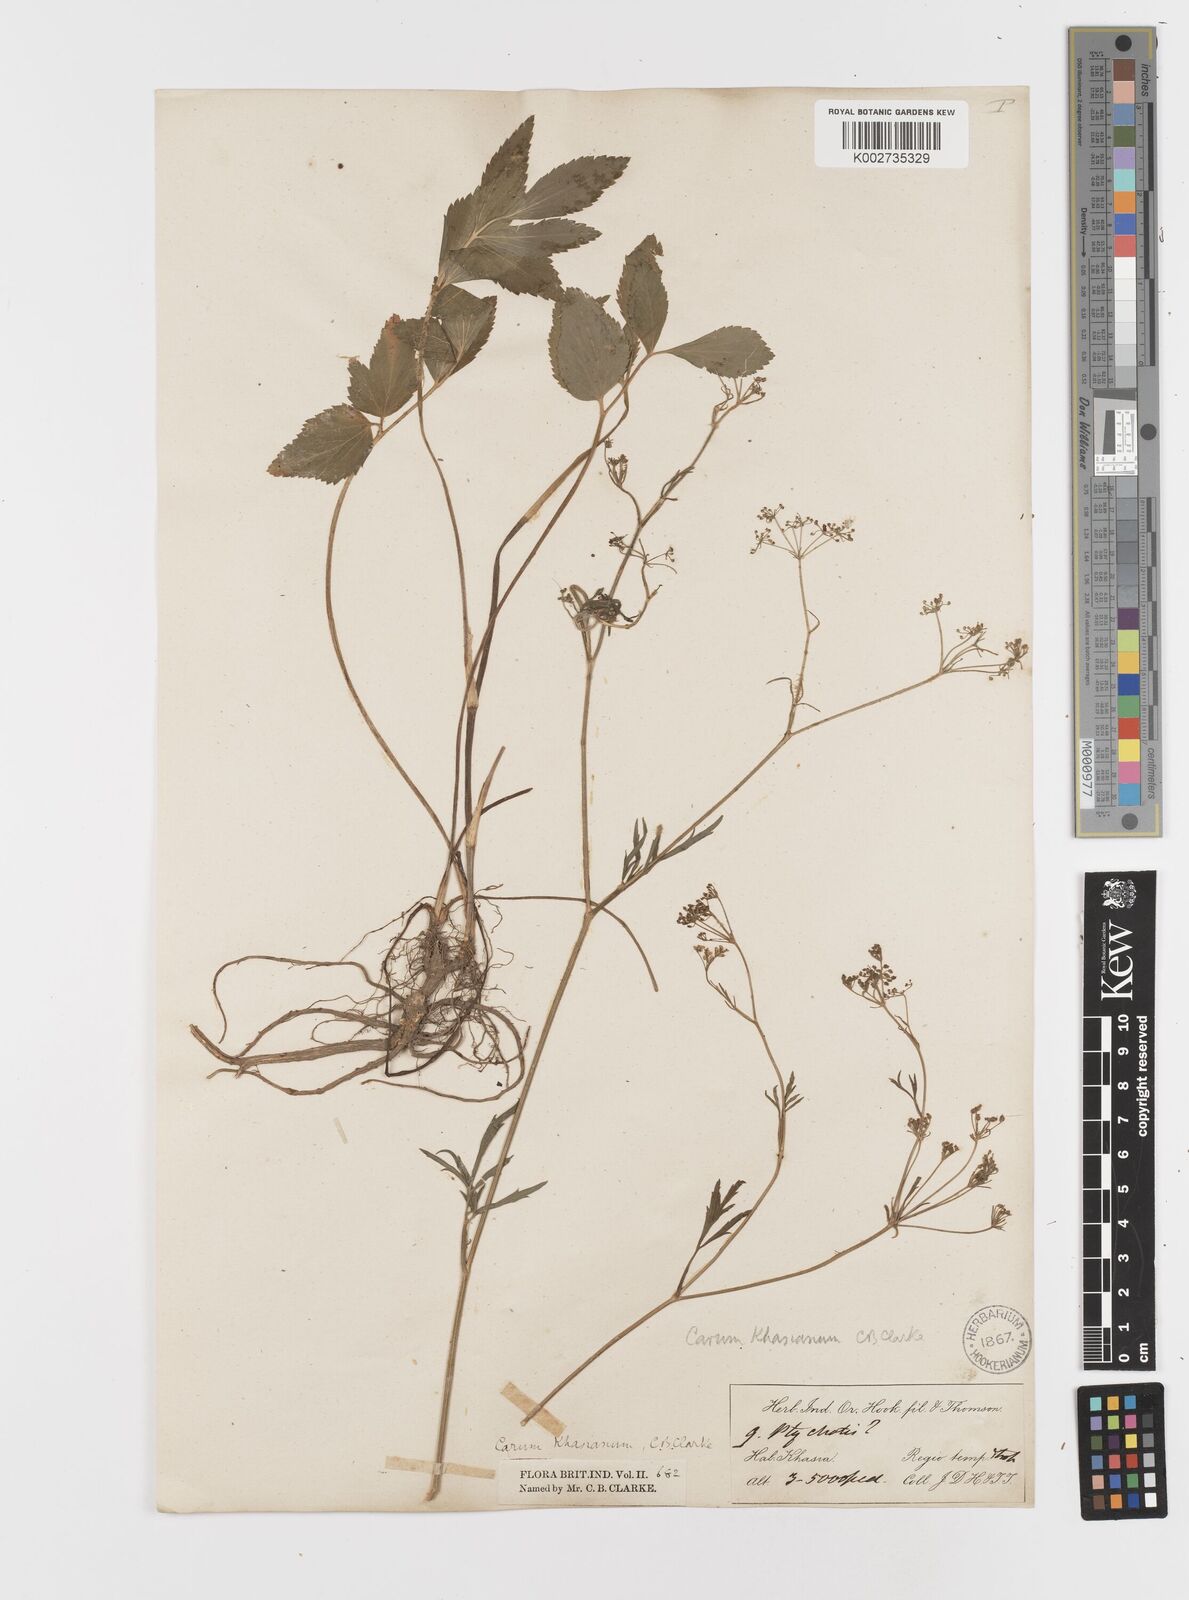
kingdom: Plantae
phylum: Tracheophyta
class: Magnoliopsida
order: Apiales
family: Apiaceae
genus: Trachyspermum
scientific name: Trachyspermum khasianum
